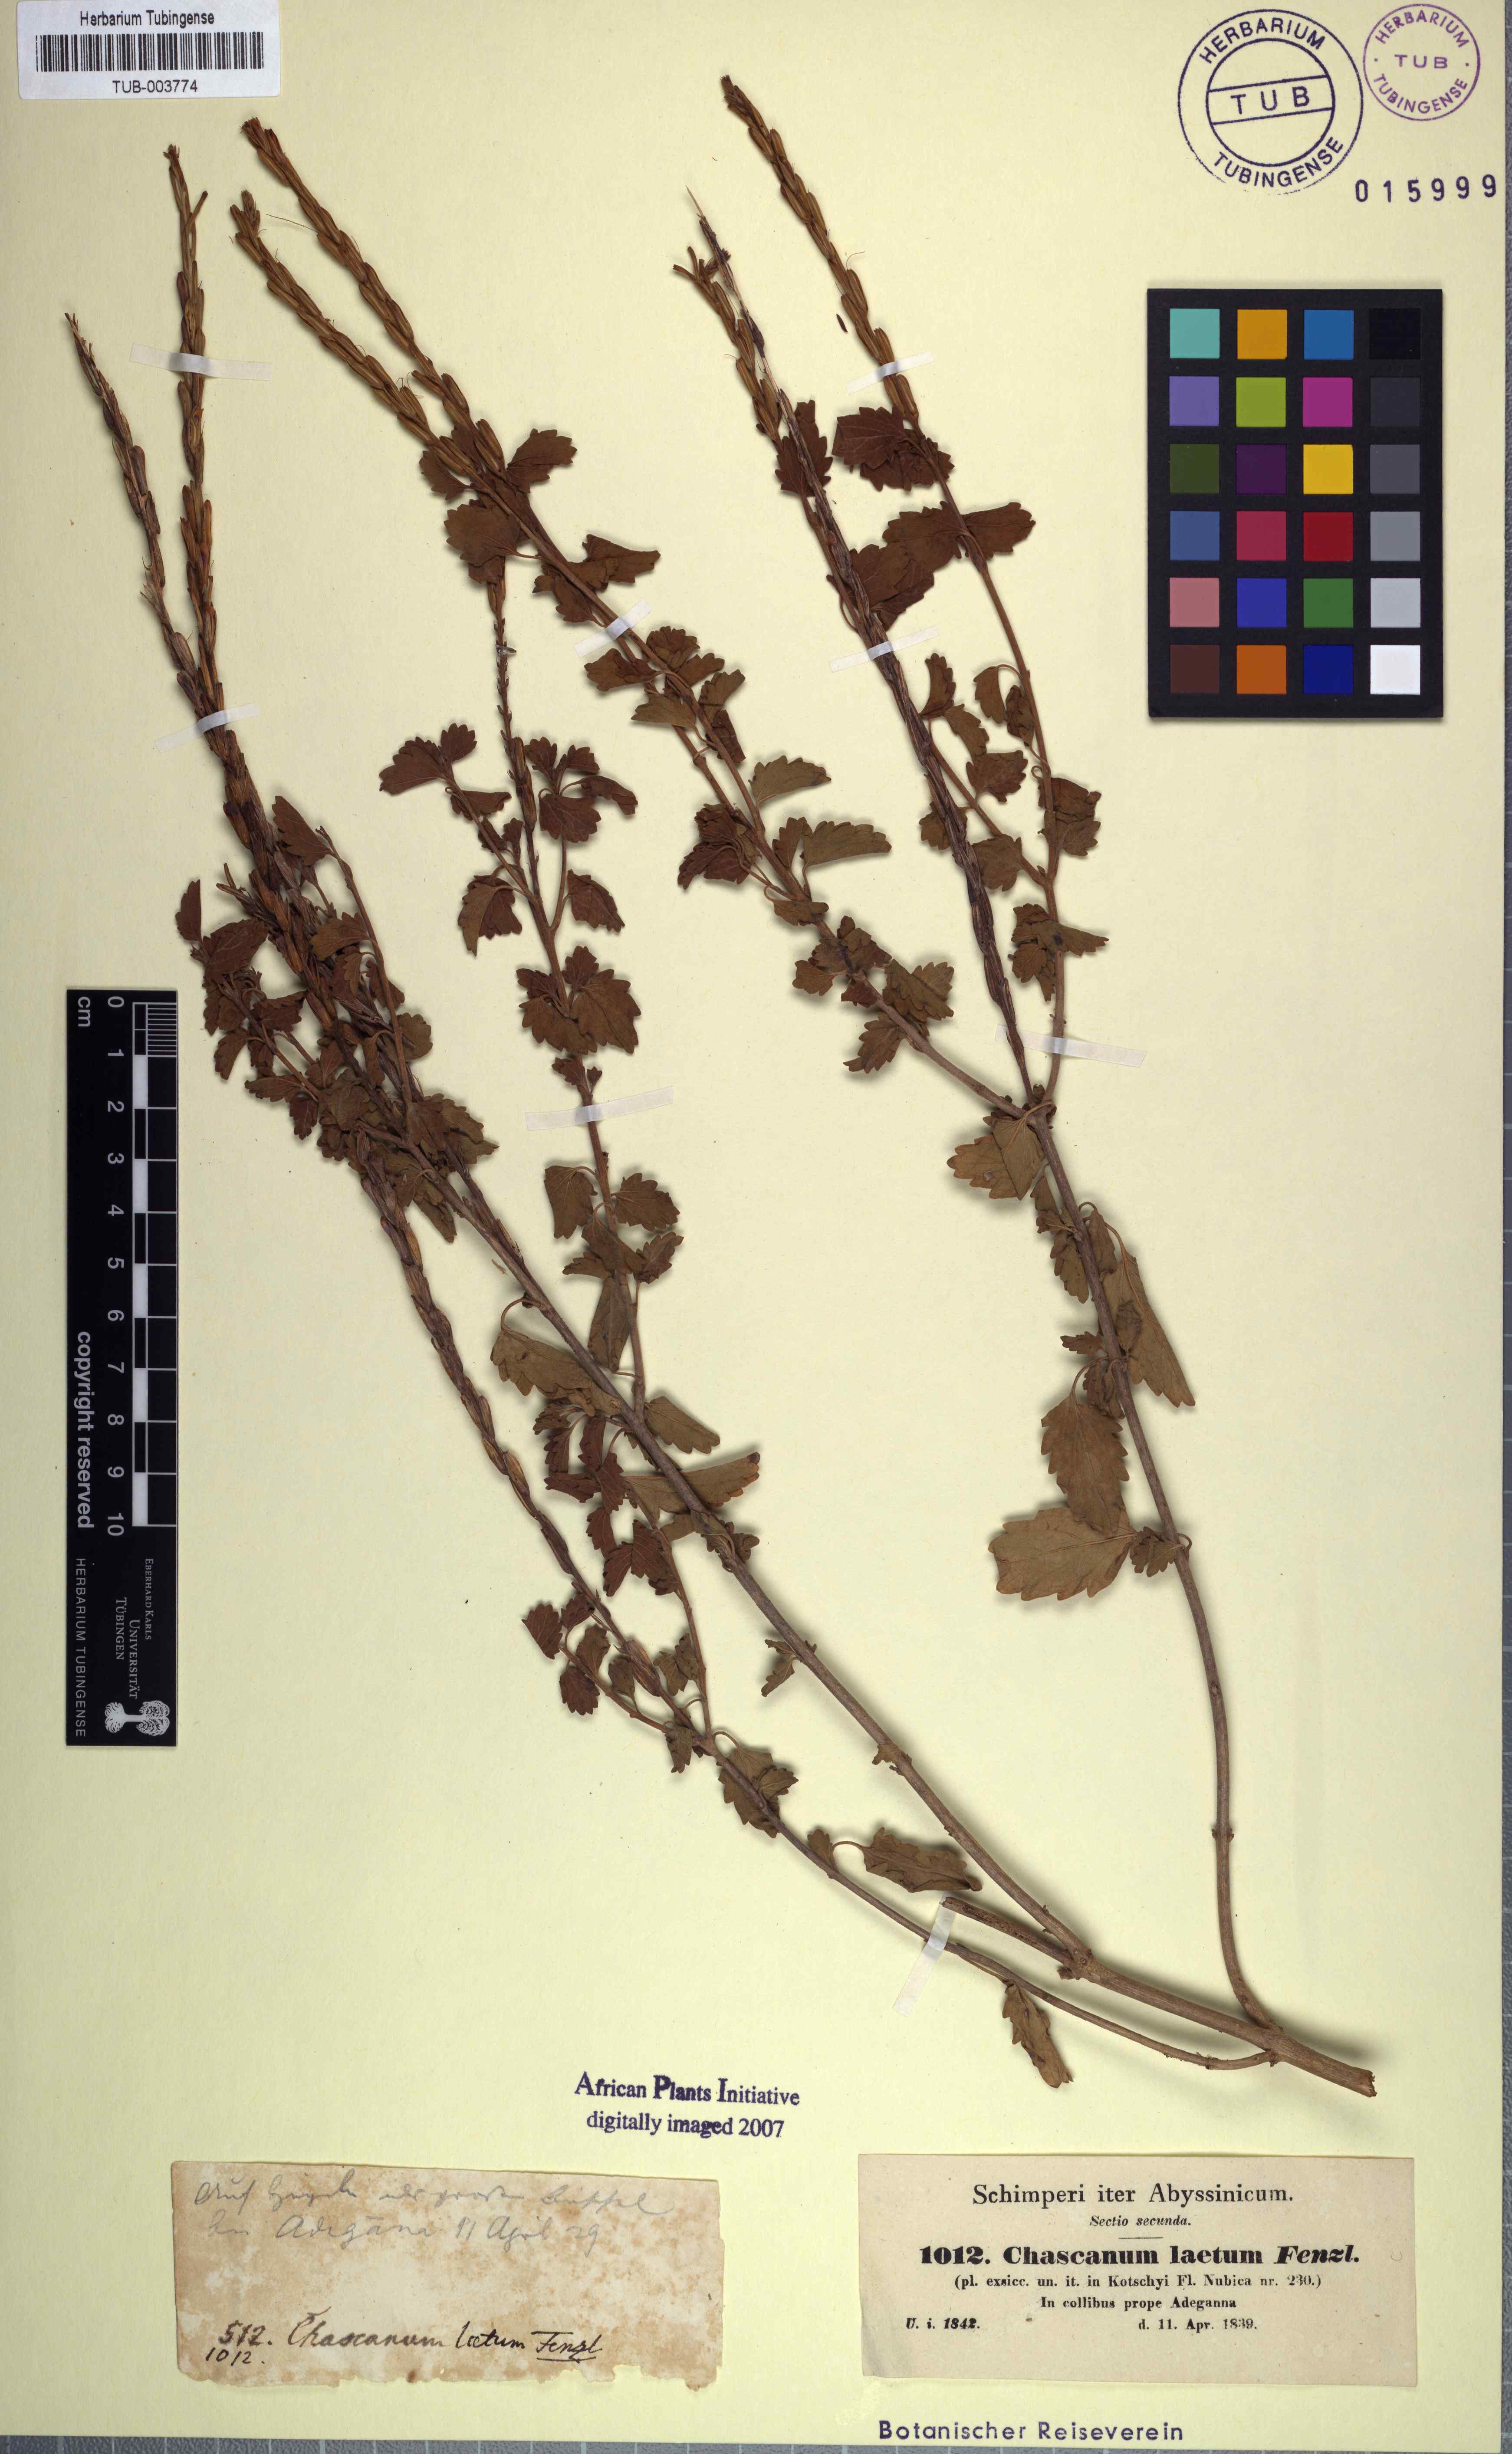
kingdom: Plantae
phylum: Tracheophyta
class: Magnoliopsida
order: Lamiales
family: Verbenaceae
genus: Chascanum
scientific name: Chascanum laetum
